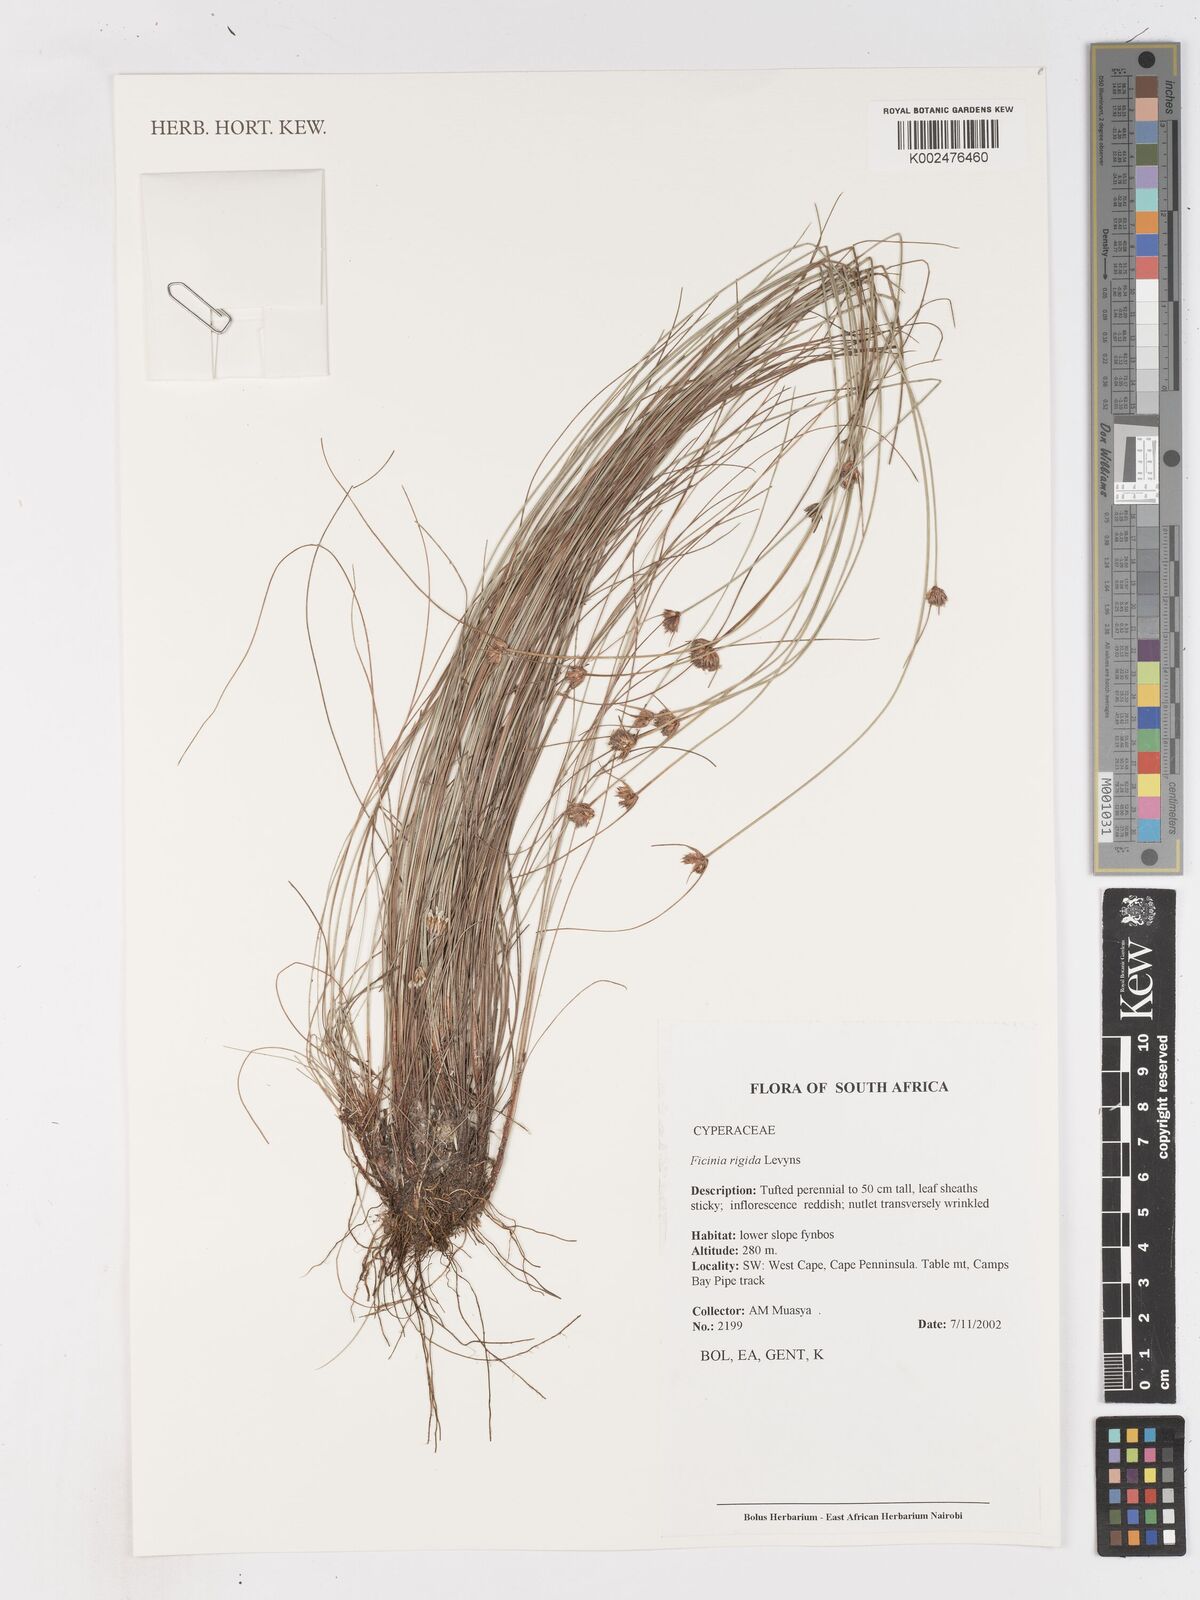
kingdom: Plantae
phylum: Tracheophyta
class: Liliopsida
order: Poales
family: Cyperaceae
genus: Ficinia
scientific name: Ficinia rigida
